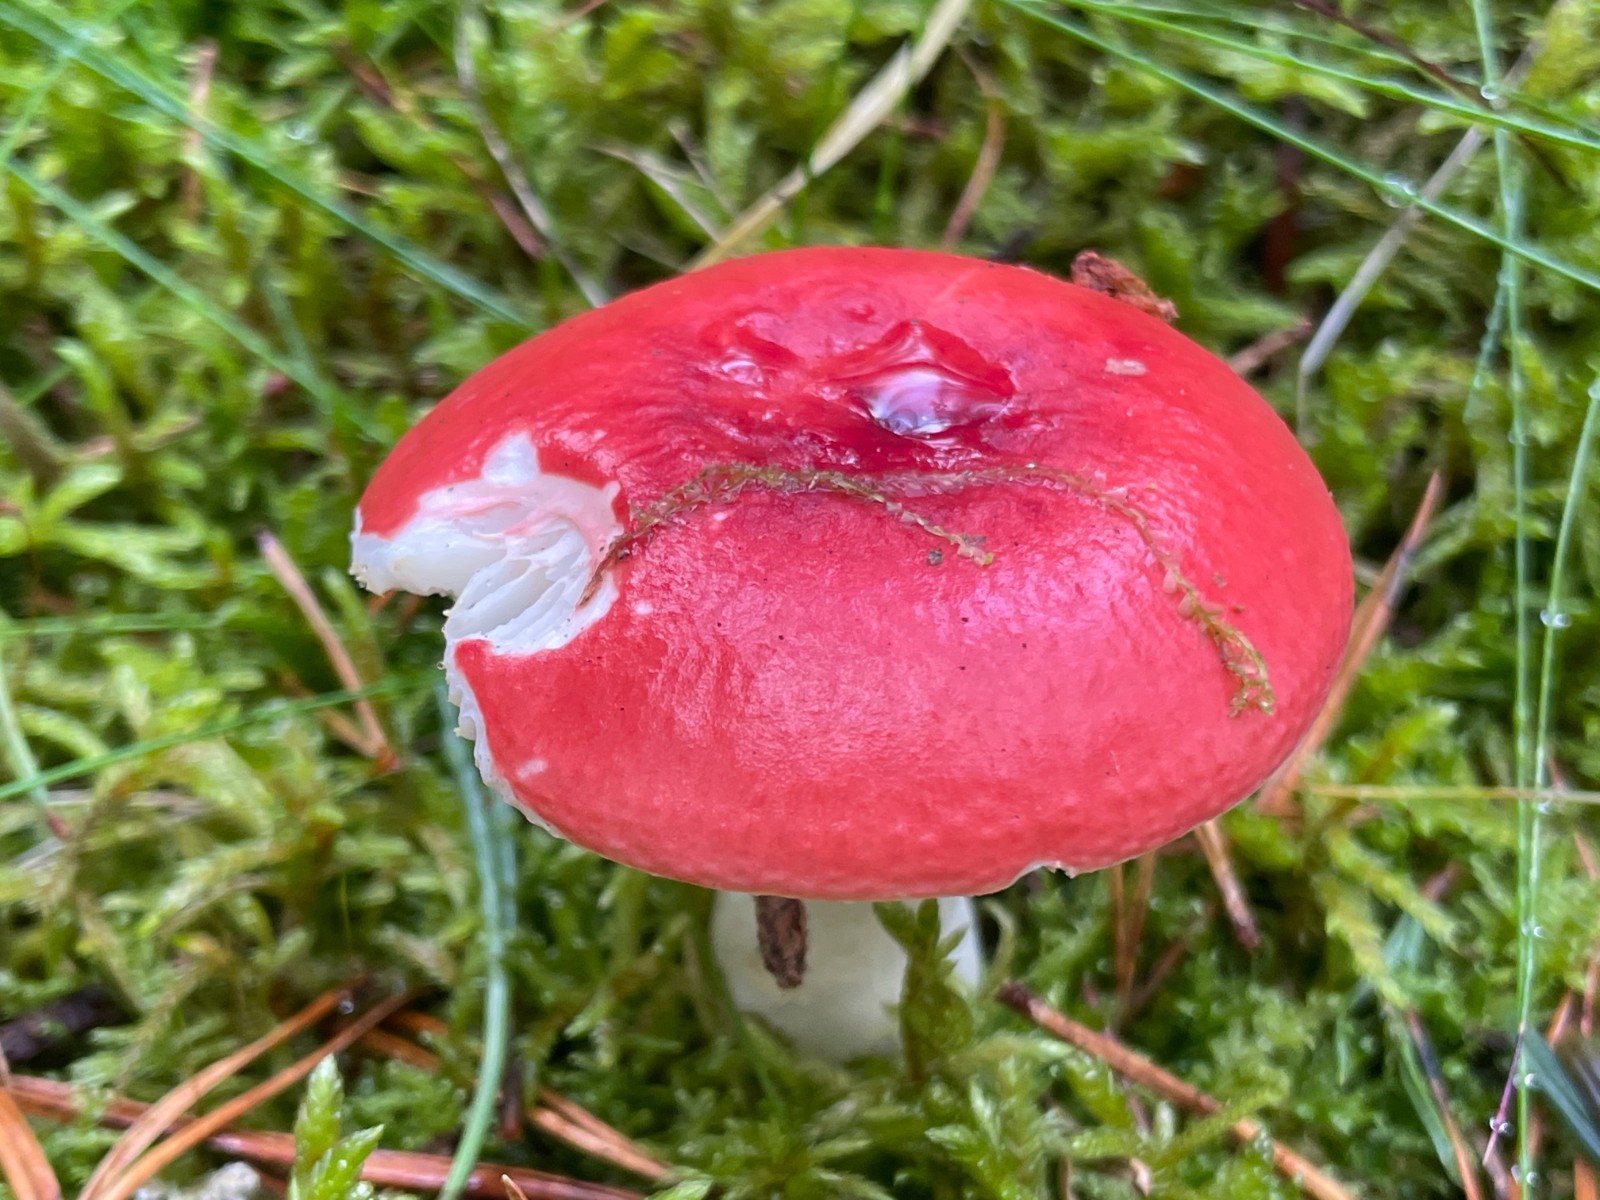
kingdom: Fungi
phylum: Basidiomycota
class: Agaricomycetes
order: Russulales
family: Russulaceae
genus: Russula
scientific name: Russula emetica
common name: stor gift-skørhat
